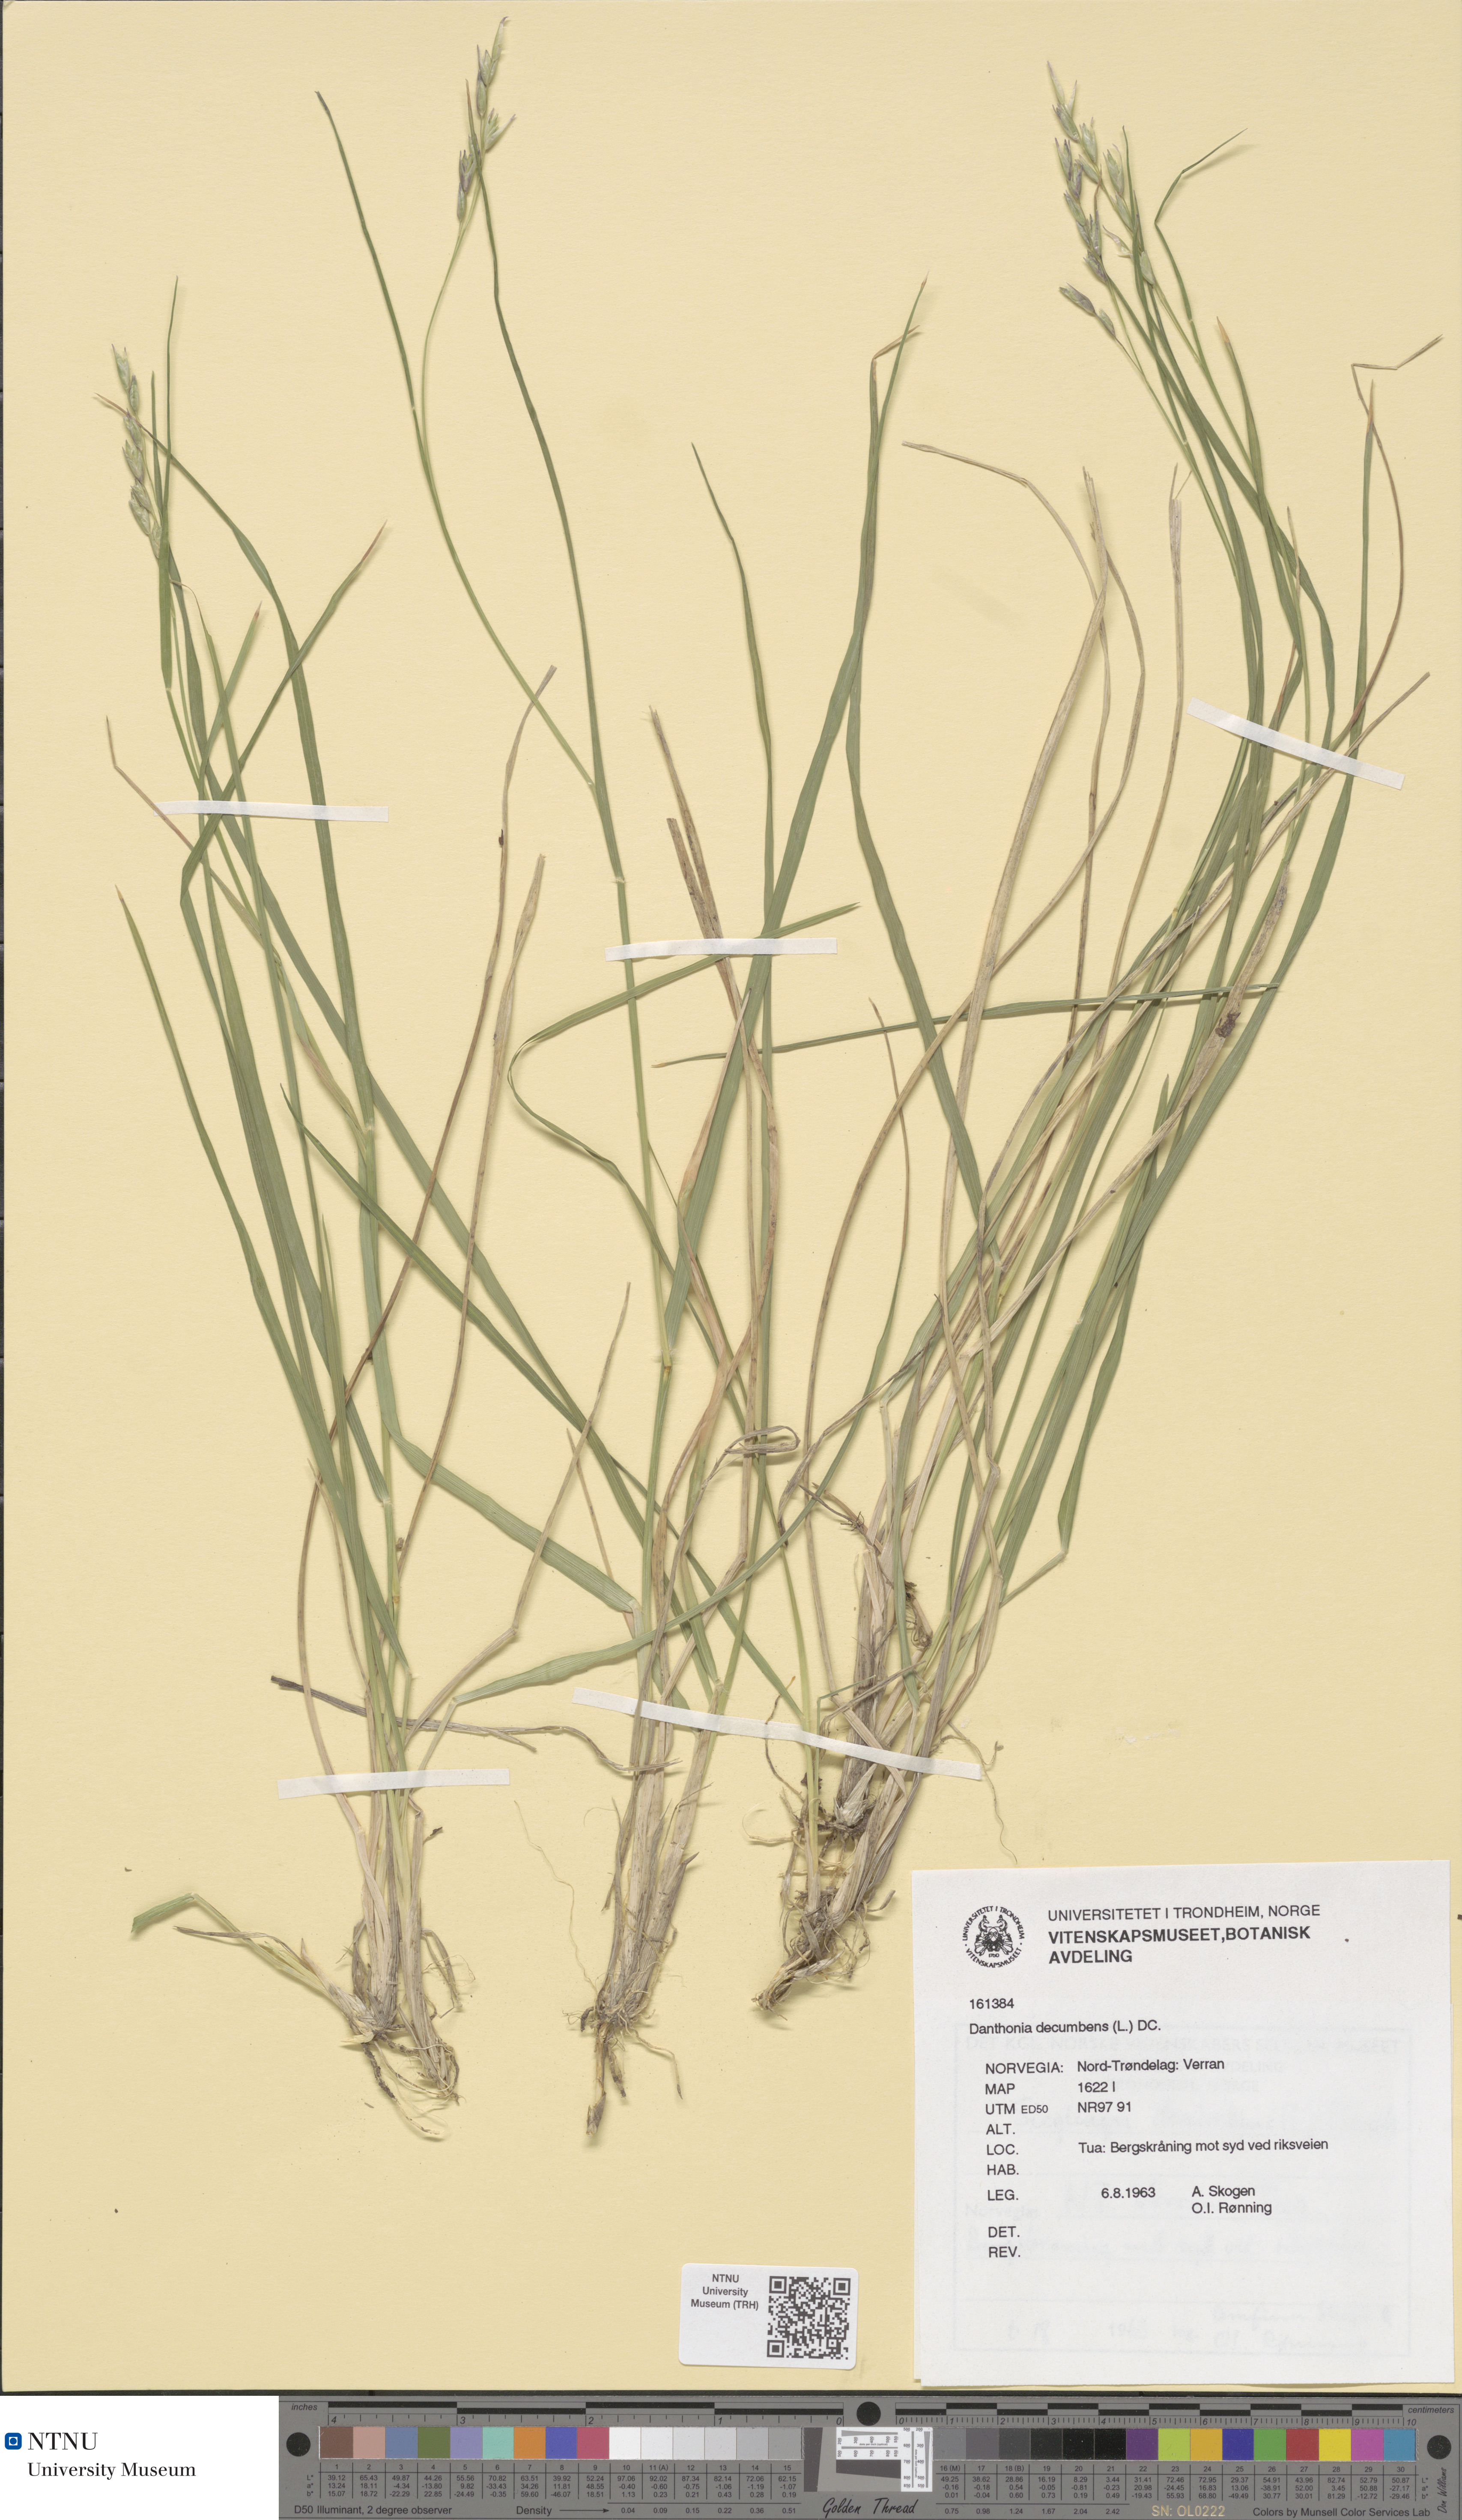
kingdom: Plantae
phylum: Tracheophyta
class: Liliopsida
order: Poales
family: Poaceae
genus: Danthonia
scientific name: Danthonia decumbens
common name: Common heathgrass
